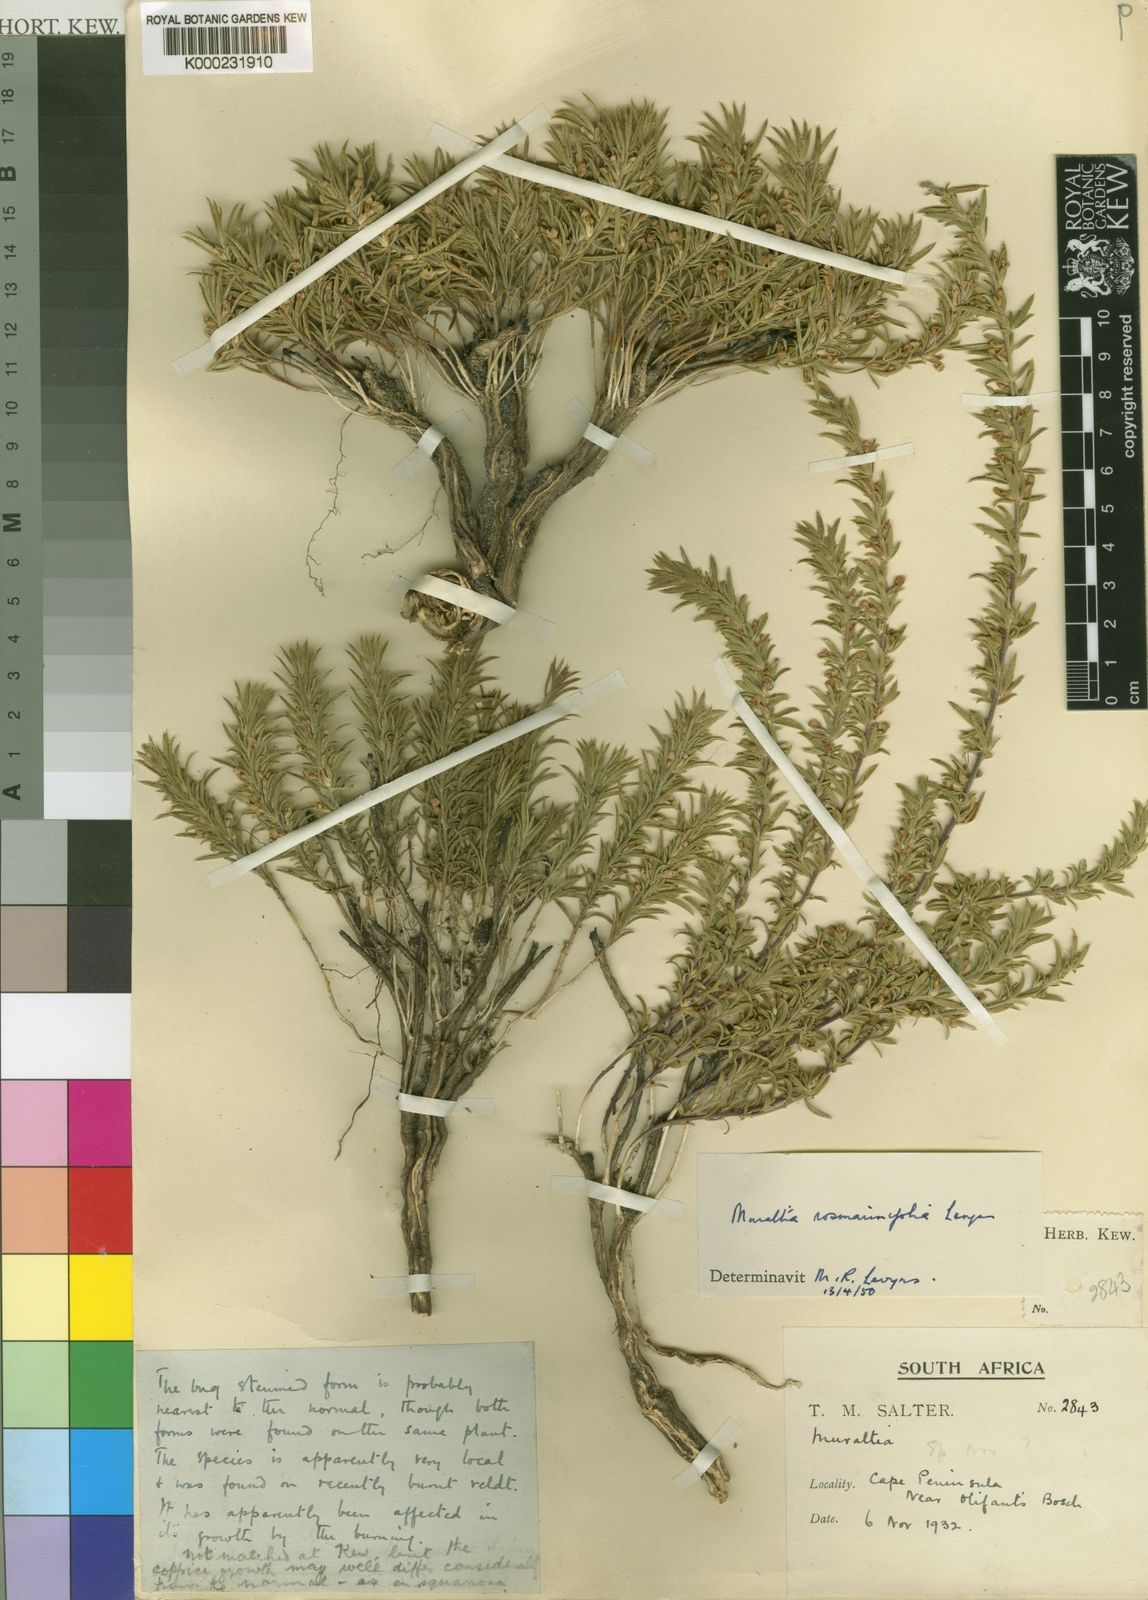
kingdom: Plantae
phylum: Tracheophyta
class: Magnoliopsida
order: Fabales
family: Polygalaceae
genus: Muraltia
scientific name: Muraltia rosmarinifolia
